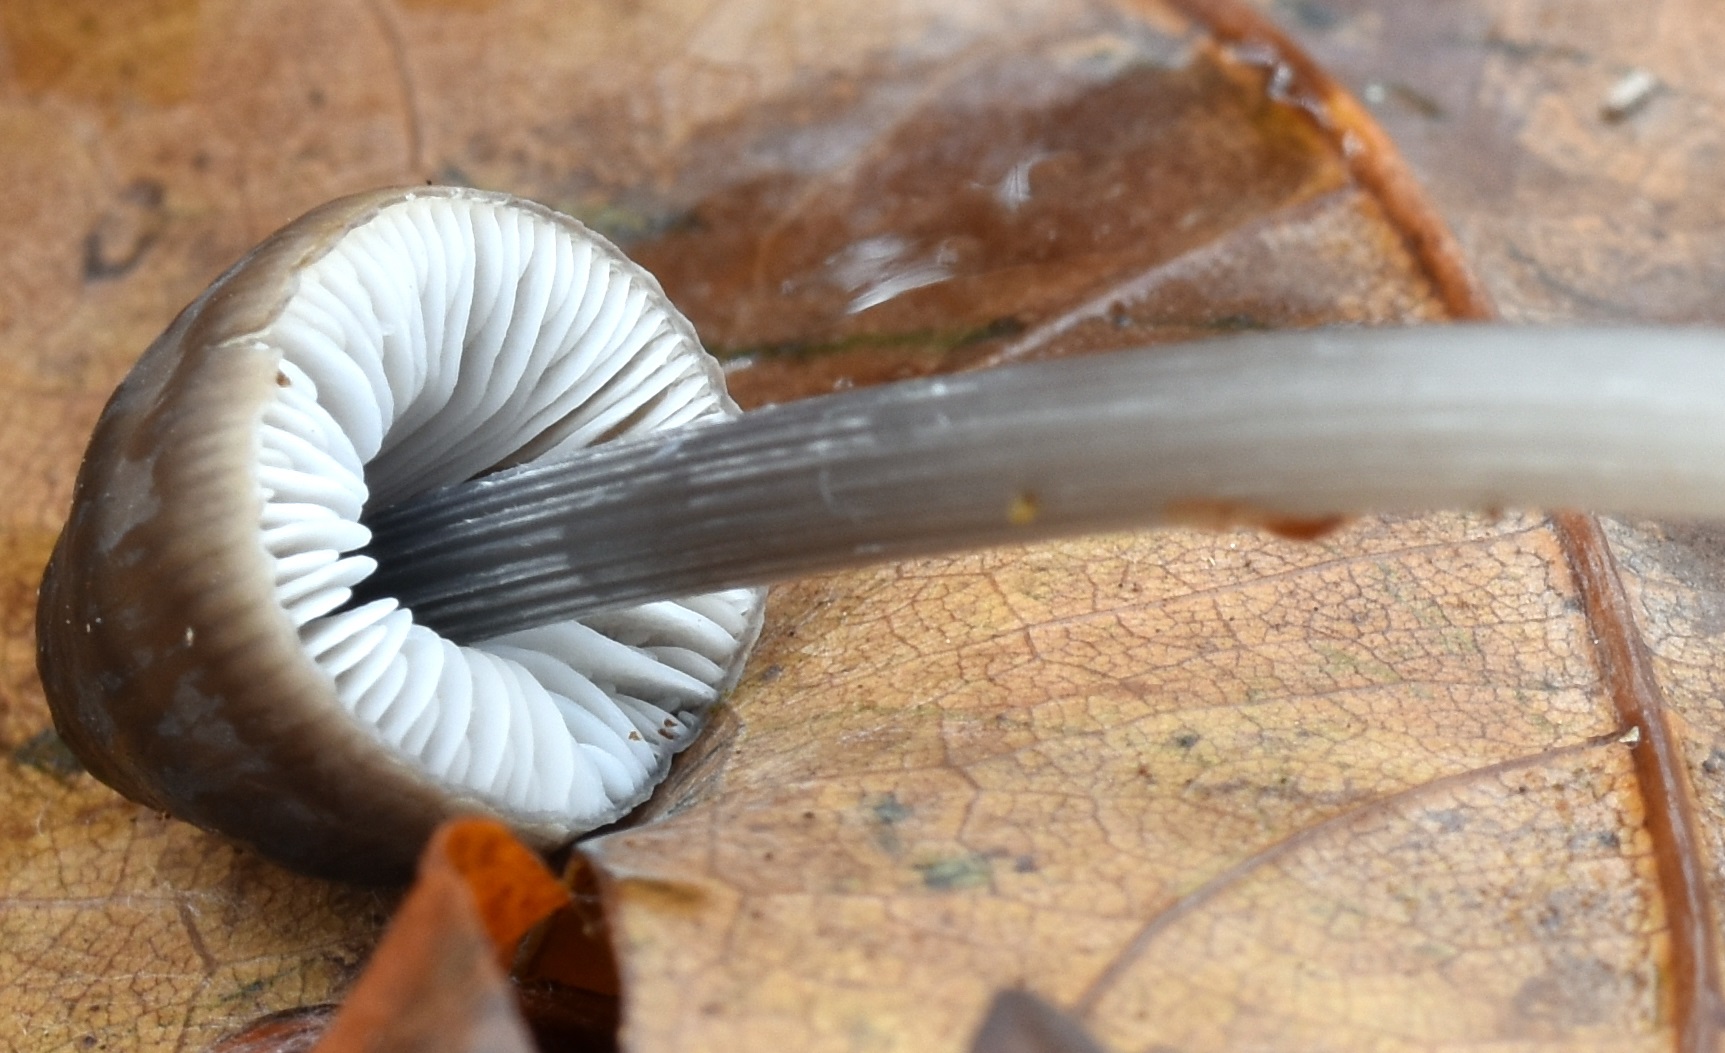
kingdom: Fungi
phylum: Basidiomycota
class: Agaricomycetes
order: Agaricales
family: Mycenaceae
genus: Mycena
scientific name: Mycena polygramma
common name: mangestribet huesvamp
